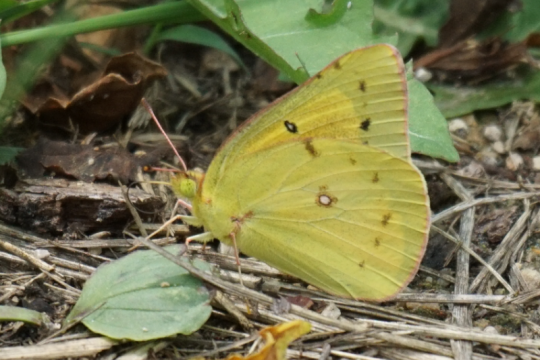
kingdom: Animalia
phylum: Arthropoda
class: Insecta
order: Lepidoptera
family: Pieridae
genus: Colias
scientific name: Colias eurytheme
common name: Orange Sulphur
